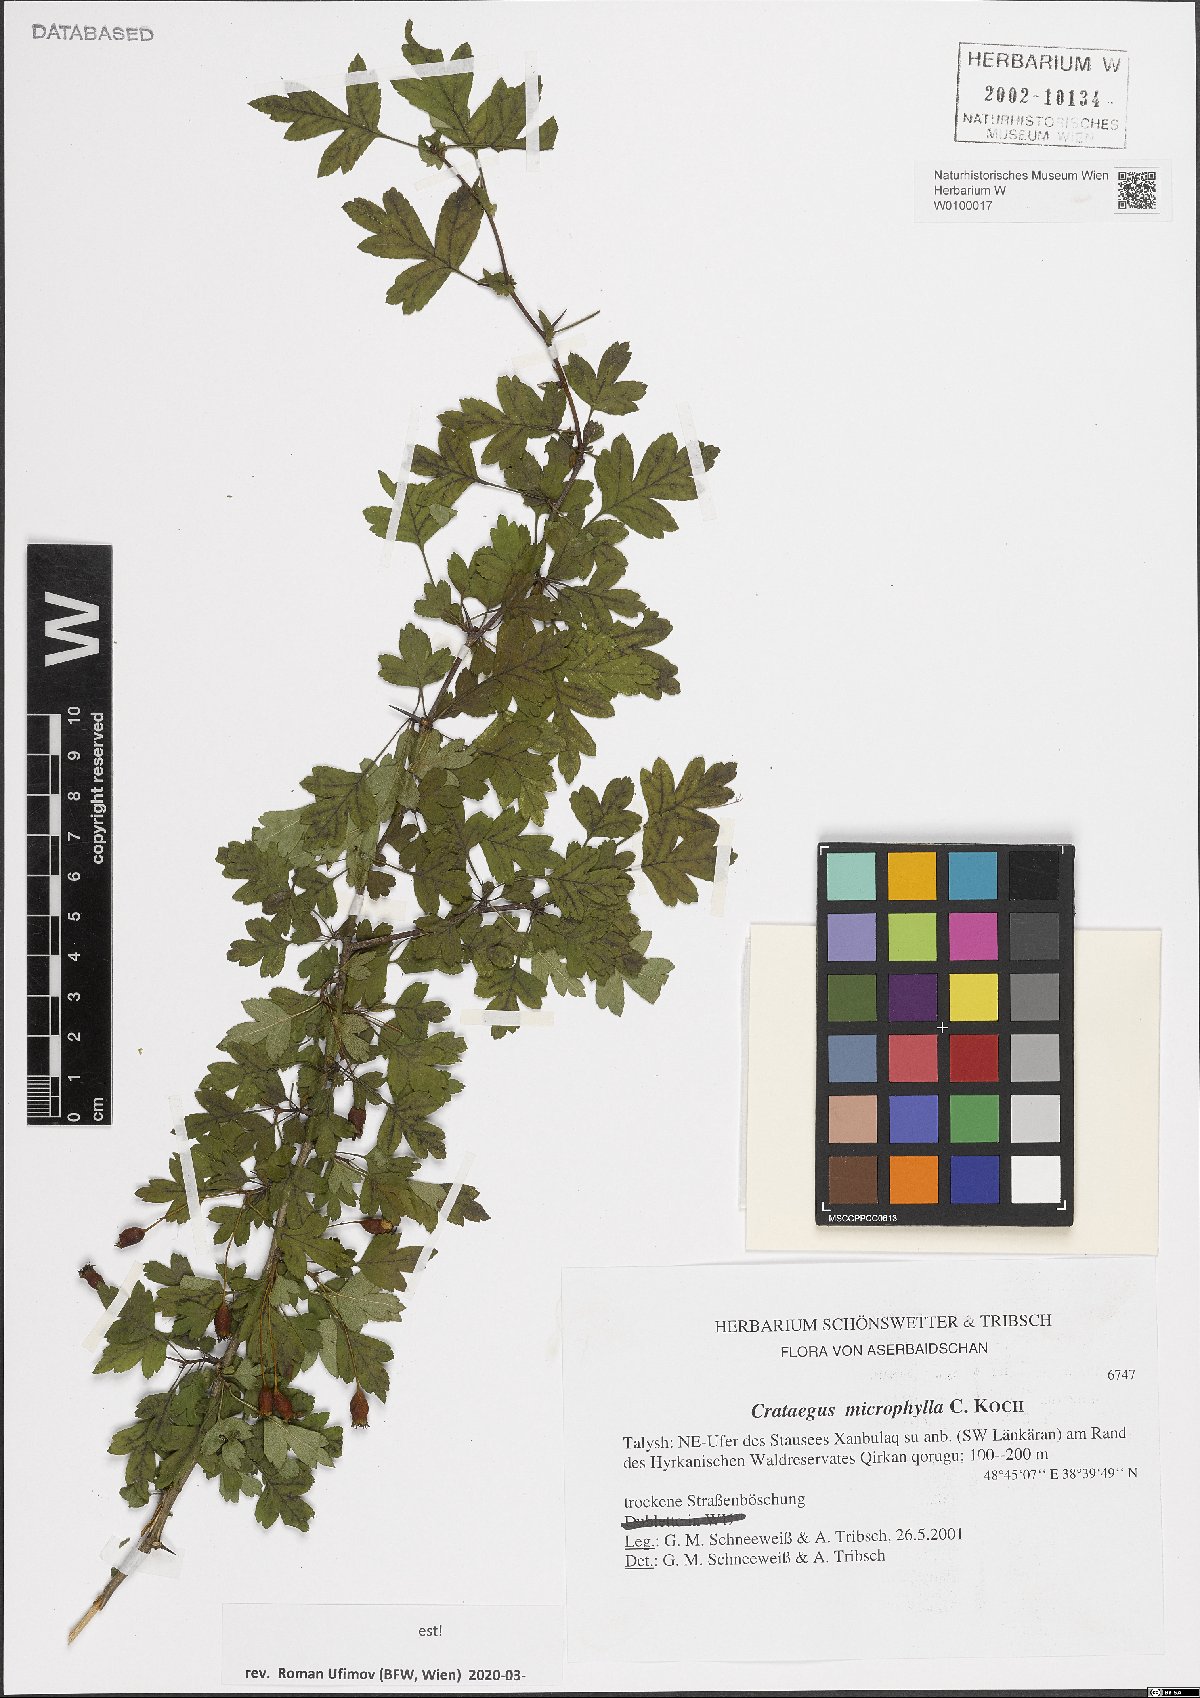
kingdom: Plantae
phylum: Tracheophyta
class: Magnoliopsida
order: Rosales
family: Rosaceae
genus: Crataegus
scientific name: Crataegus microphylla
